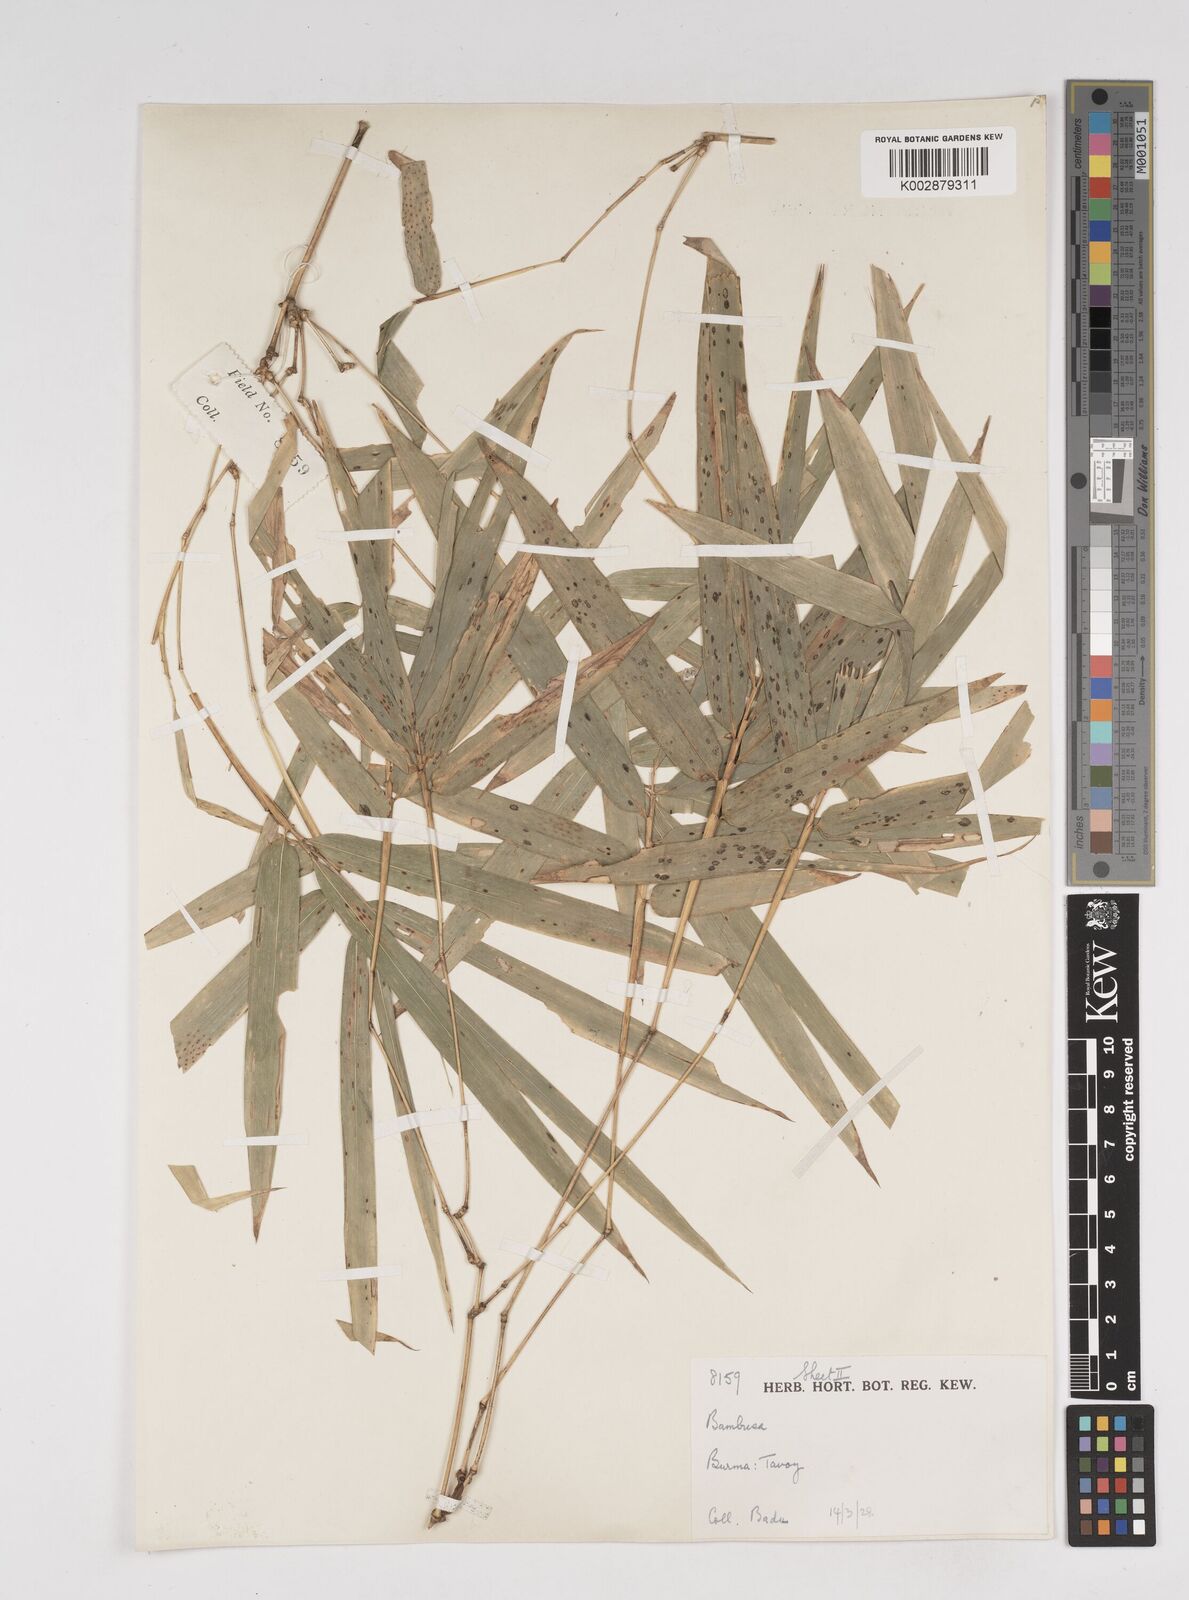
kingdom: Plantae
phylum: Tracheophyta
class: Liliopsida
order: Poales
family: Poaceae
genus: Dendrocalamus
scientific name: Dendrocalamus
